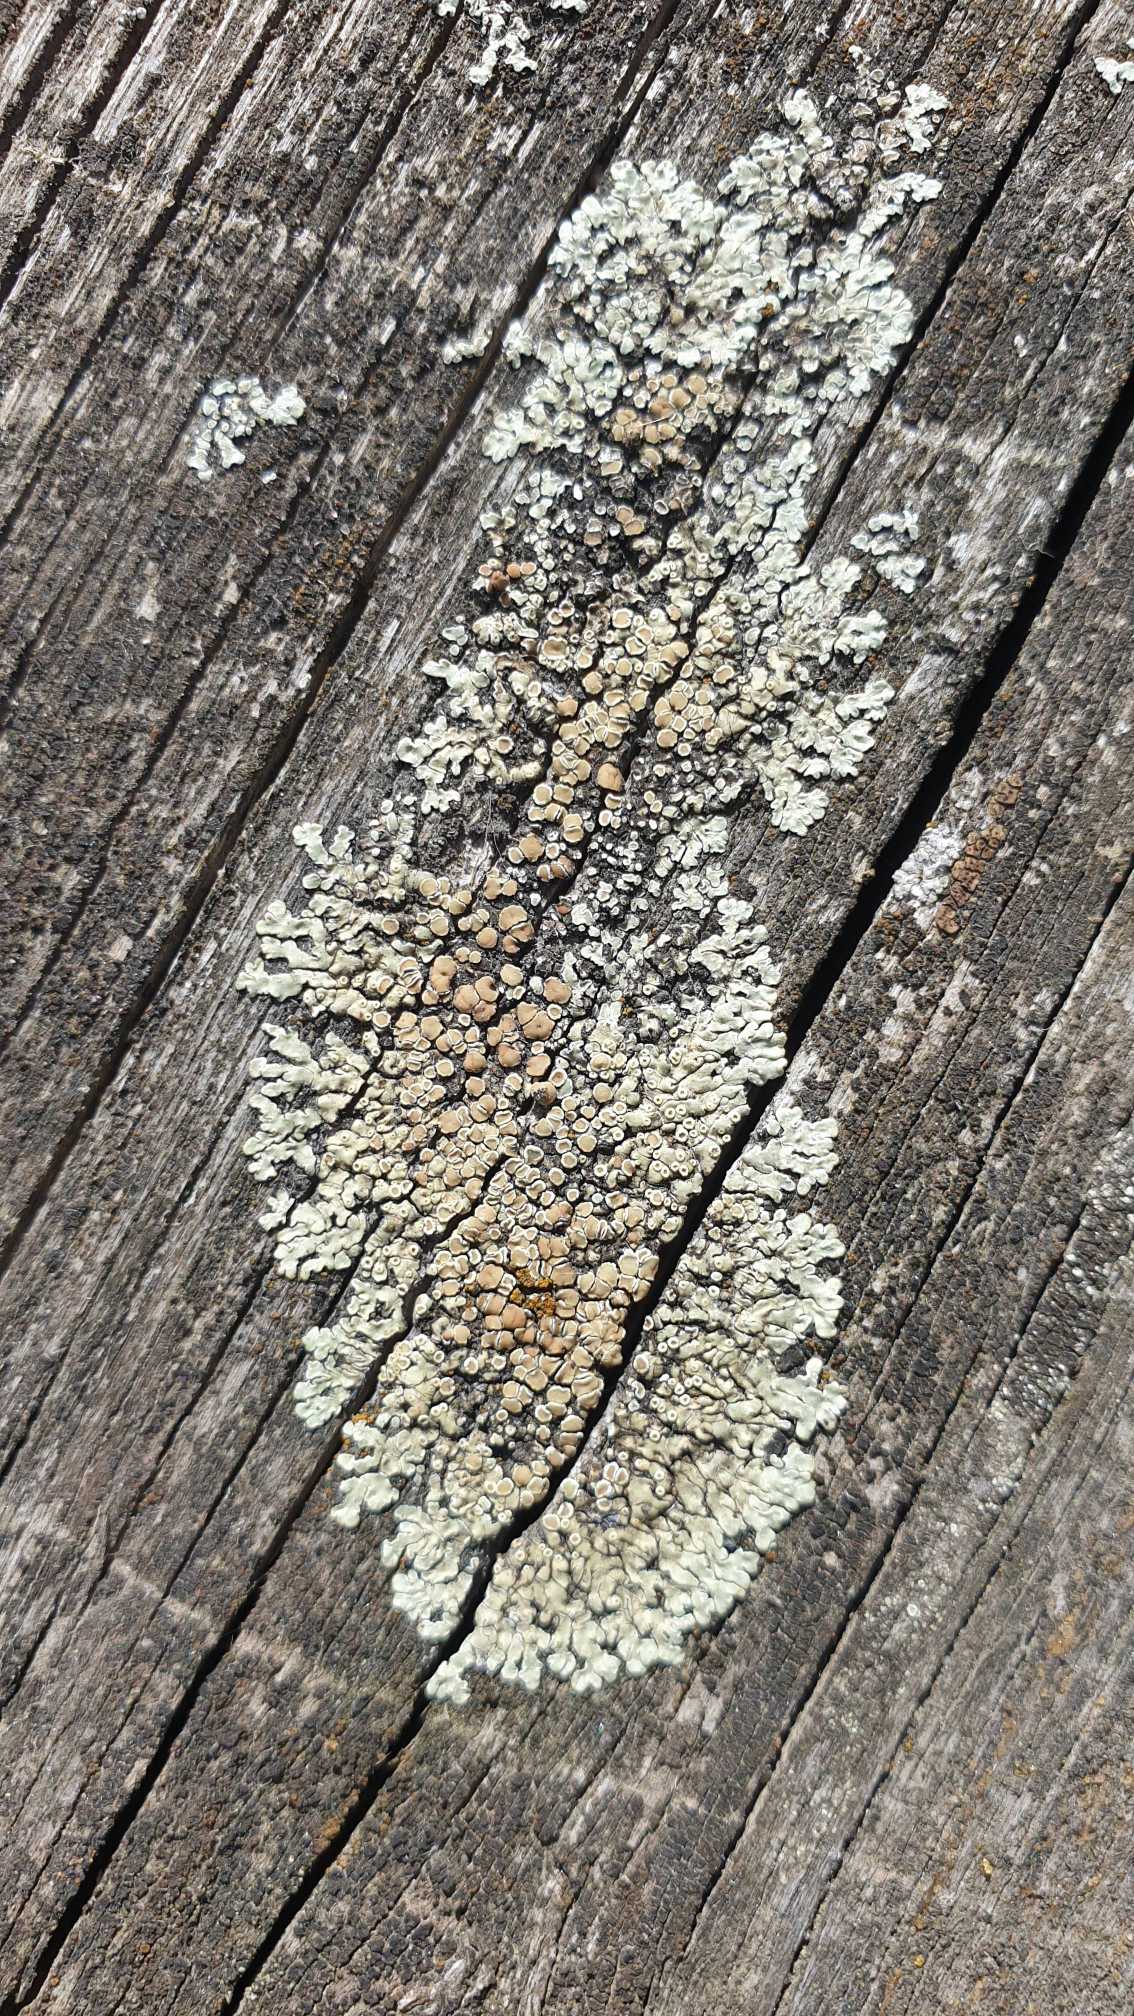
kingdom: Fungi
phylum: Ascomycota
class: Lecanoromycetes
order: Lecanorales
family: Lecanoraceae
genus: Protoparmeliopsis
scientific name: Protoparmeliopsis muralis
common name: Randfliget kantskivelav
